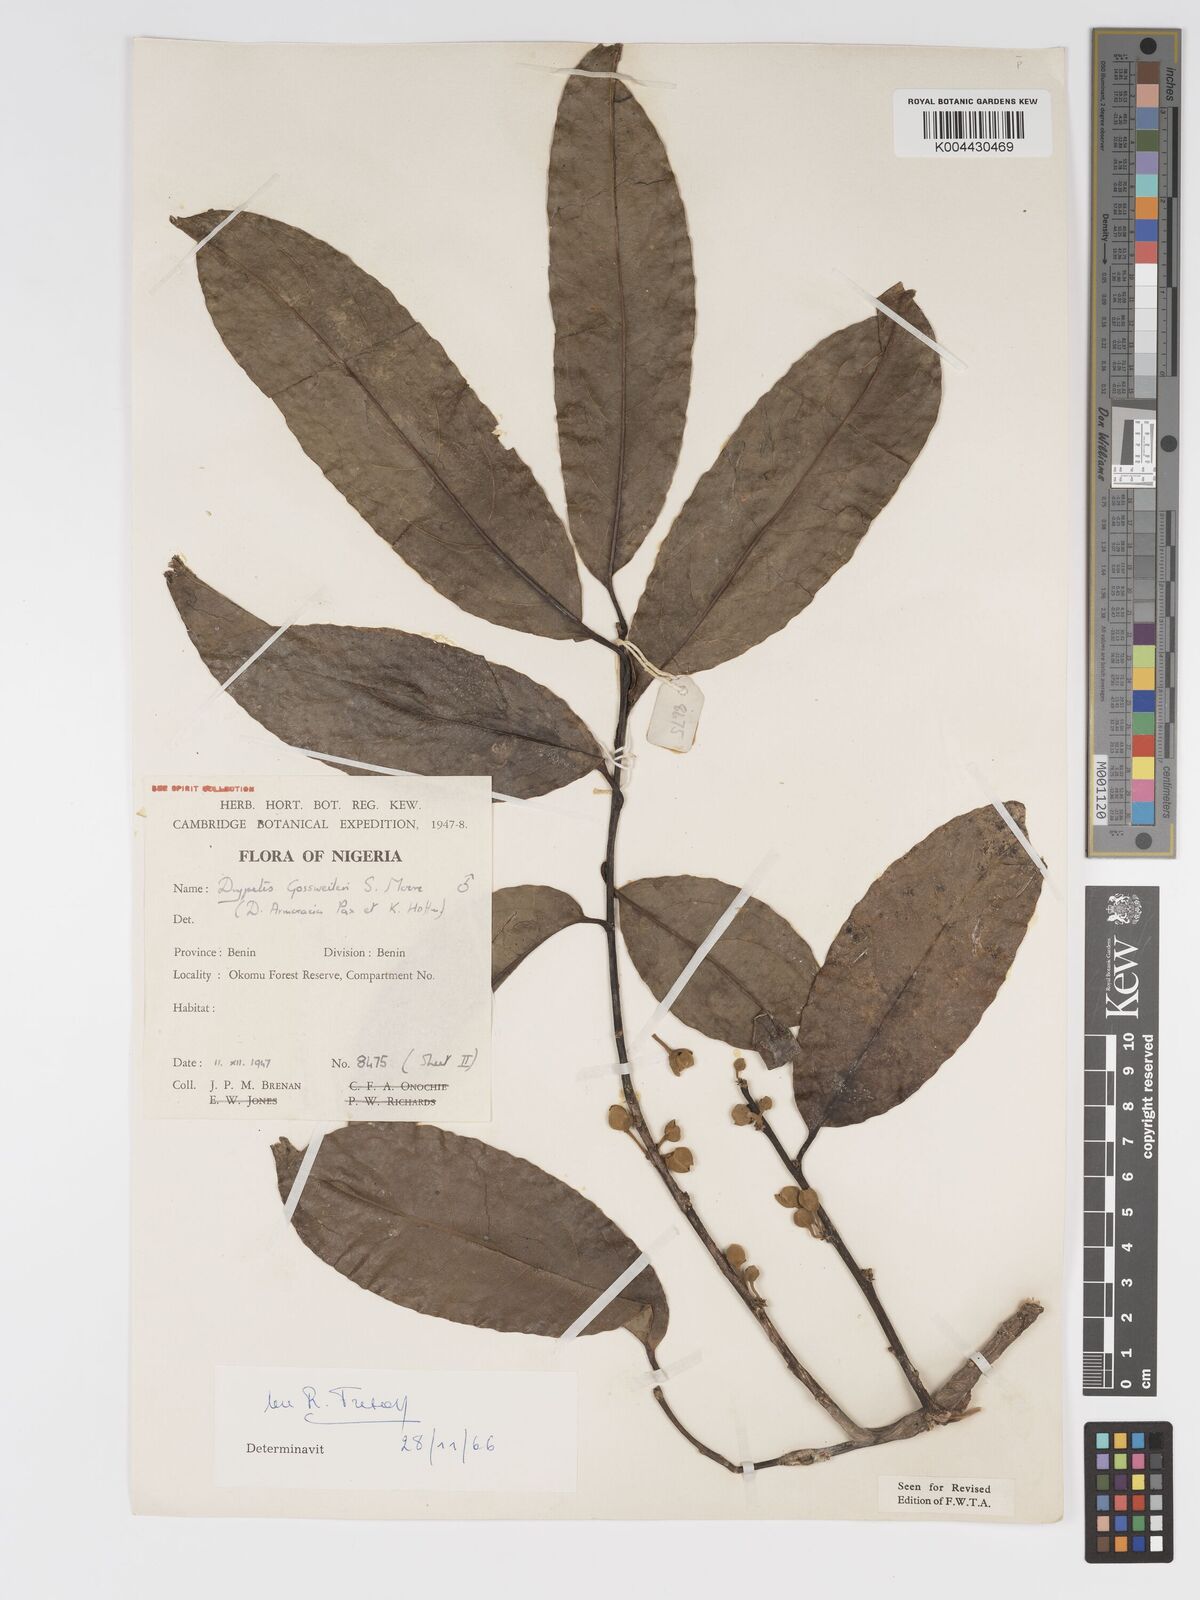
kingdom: Plantae
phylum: Tracheophyta
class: Magnoliopsida
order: Malpighiales
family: Putranjivaceae
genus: Drypetes
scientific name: Drypetes gossweileri
